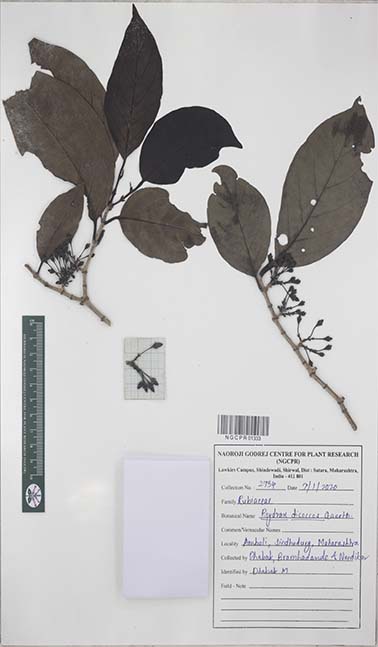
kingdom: Plantae
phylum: Tracheophyta
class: Magnoliopsida
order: Gentianales
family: Rubiaceae
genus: Psydrax
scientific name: Psydrax dicoccos
